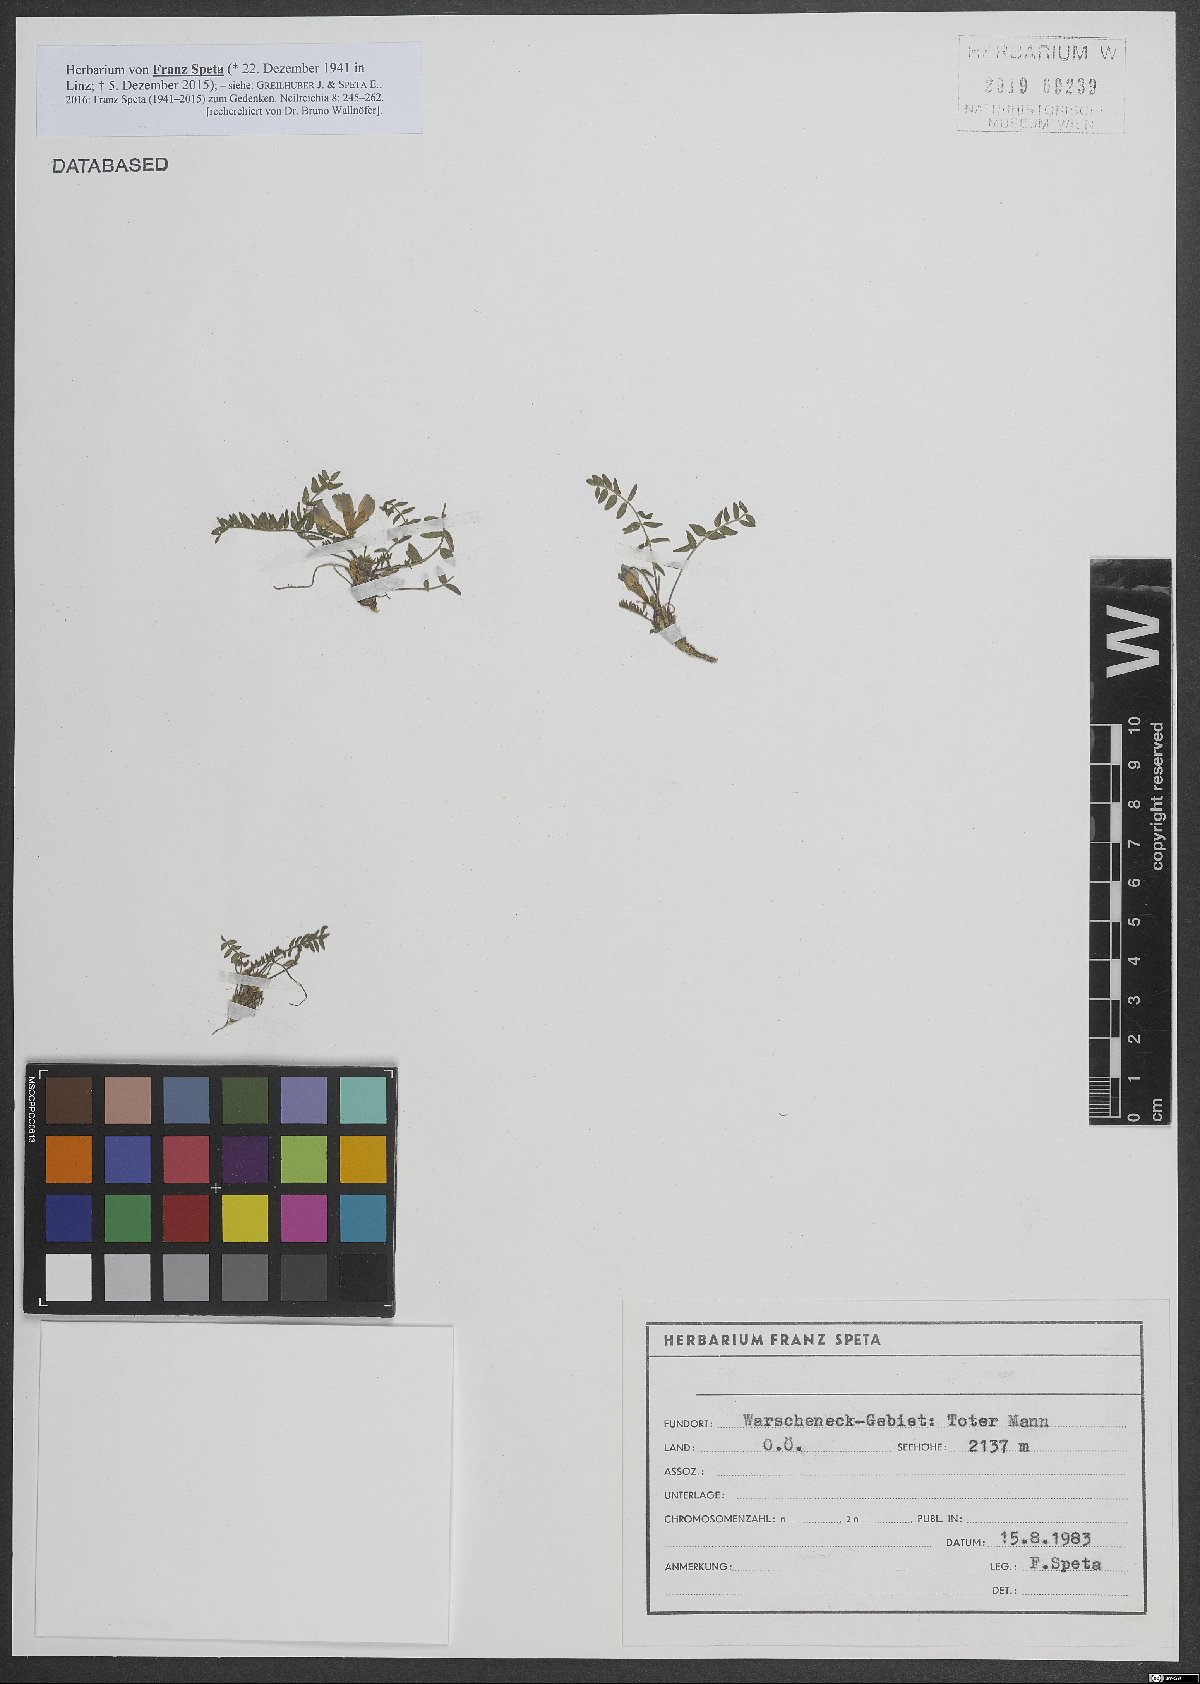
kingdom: Plantae
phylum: Tracheophyta
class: Magnoliopsida
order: Fabales
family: Fabaceae
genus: Oxytropis
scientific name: Oxytropis
